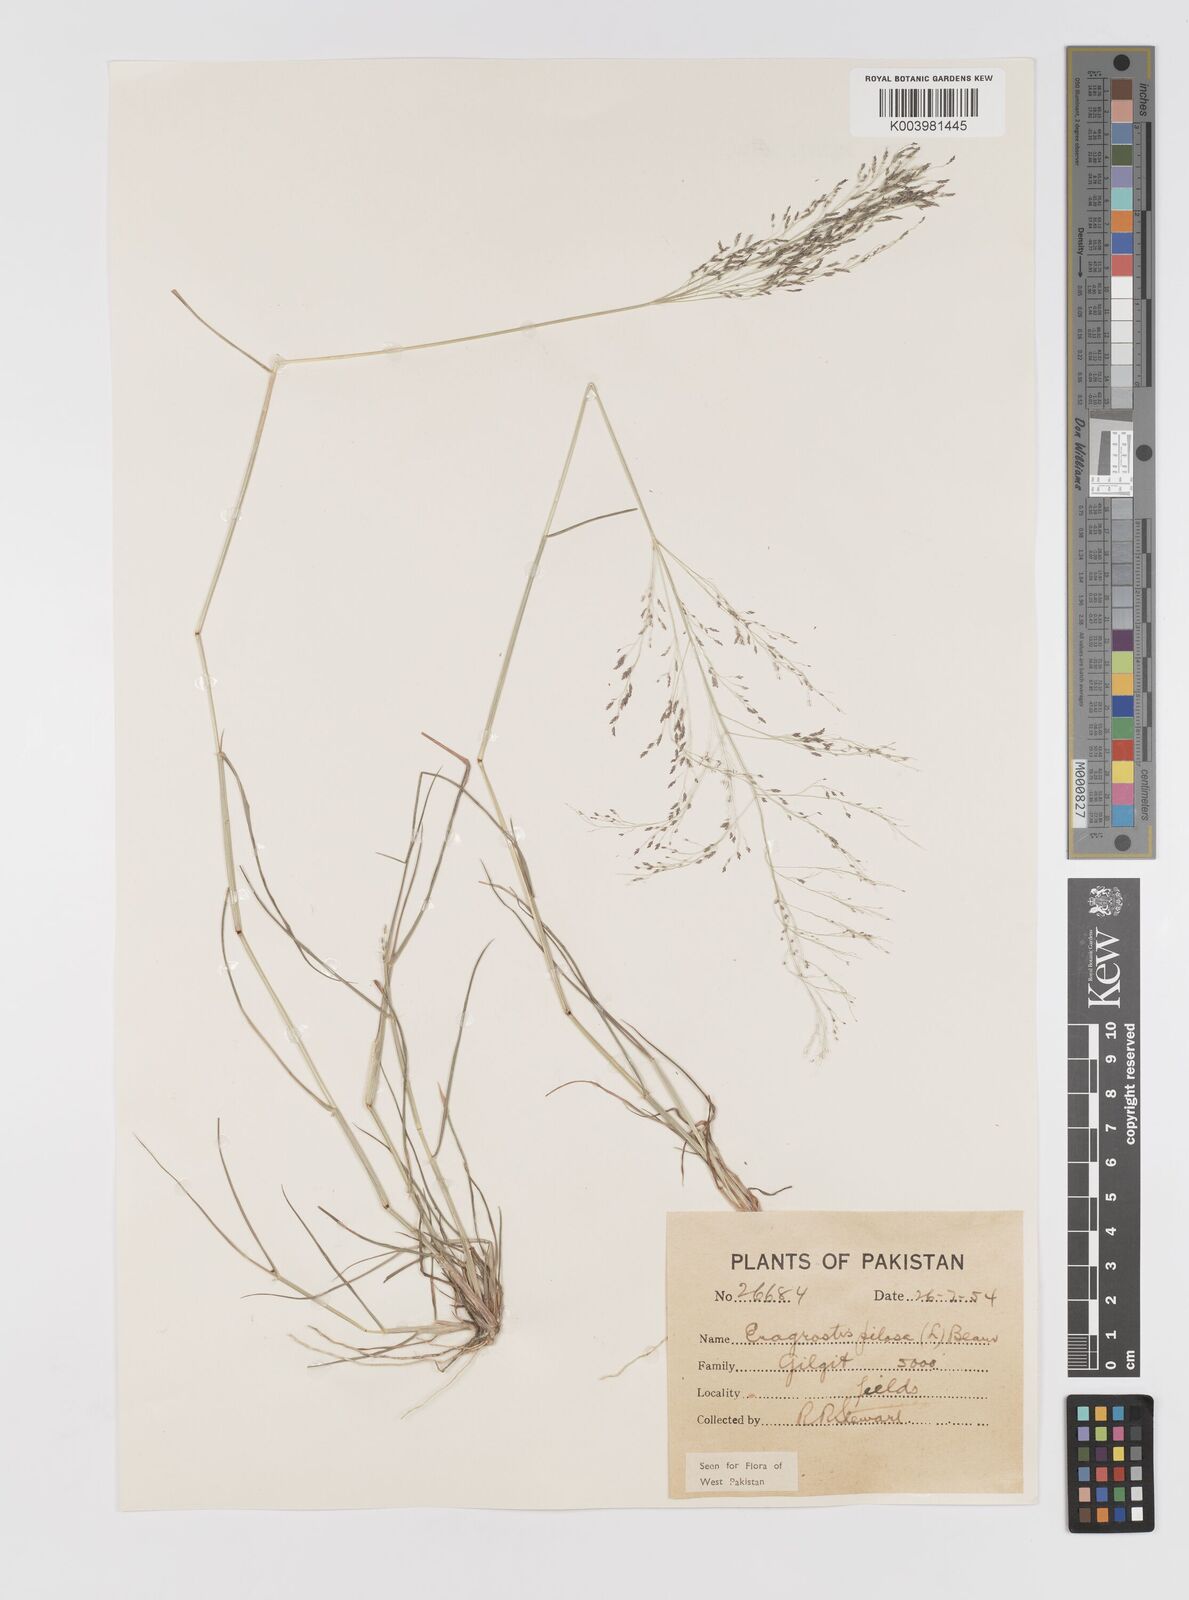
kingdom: Plantae
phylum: Tracheophyta
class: Liliopsida
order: Poales
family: Poaceae
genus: Eragrostis
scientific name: Eragrostis pilosa
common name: Indian lovegrass
